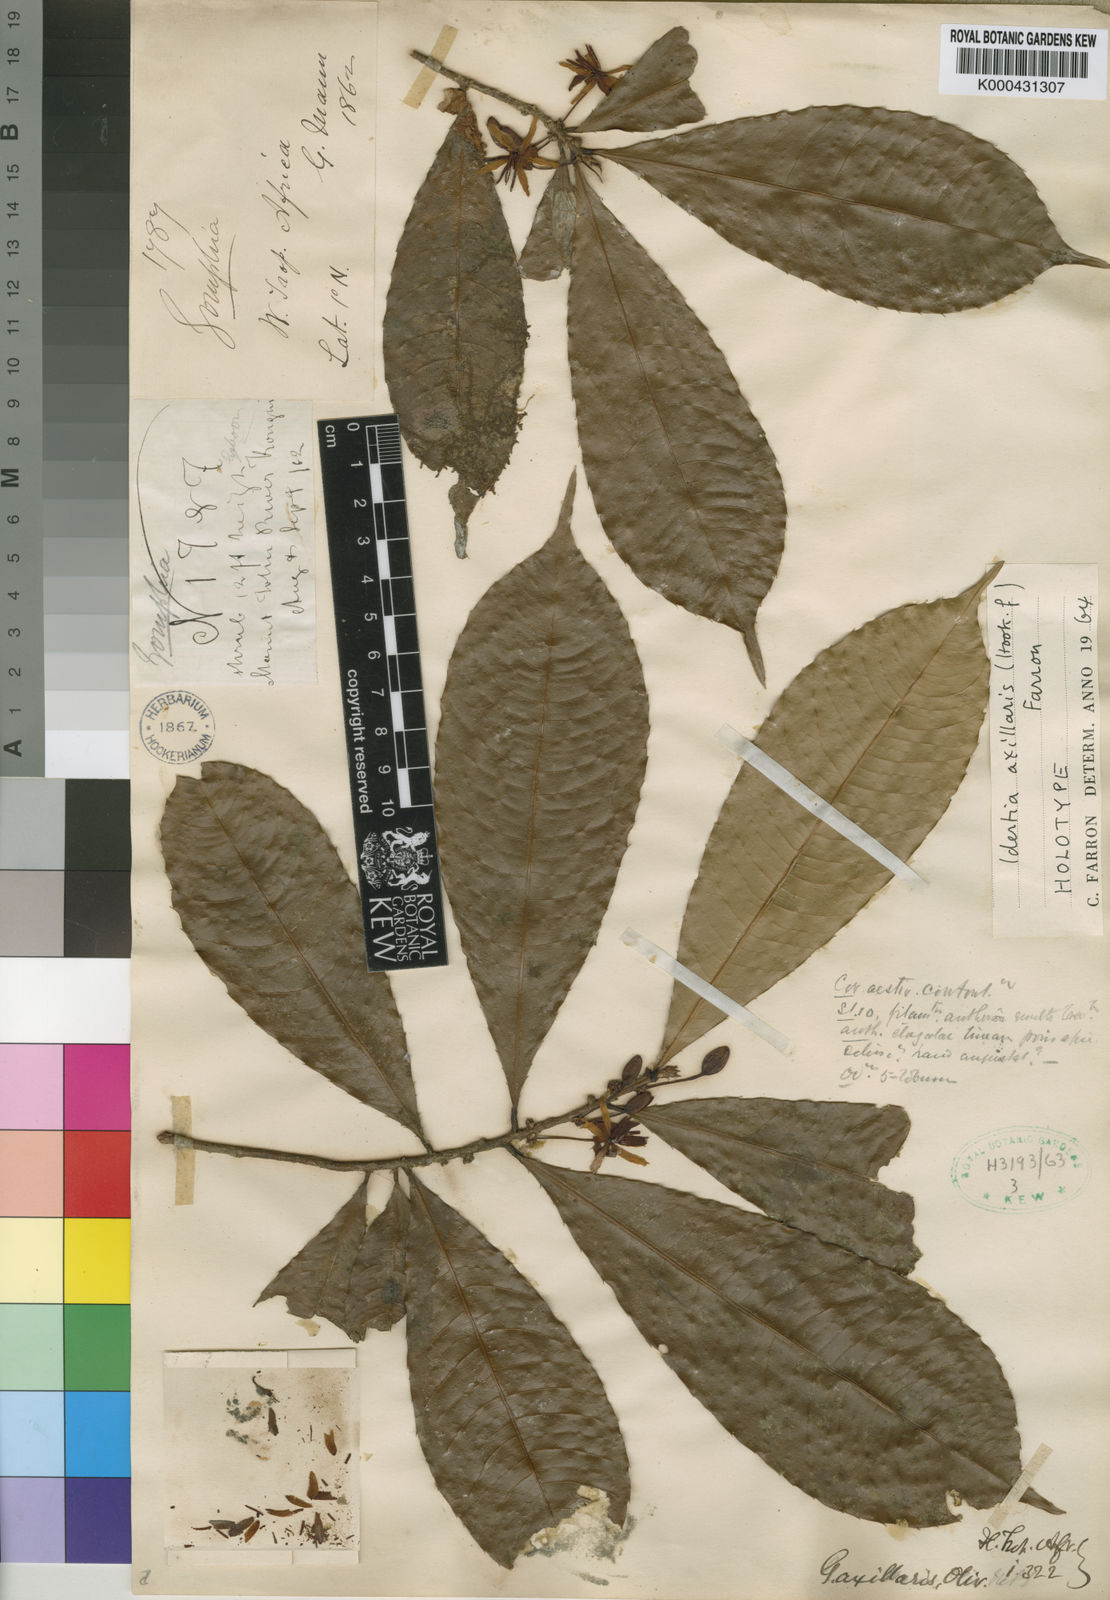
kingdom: Plantae
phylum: Tracheophyta
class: Magnoliopsida
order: Malpighiales
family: Ochnaceae
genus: Idertia
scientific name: Idertia axillaris
